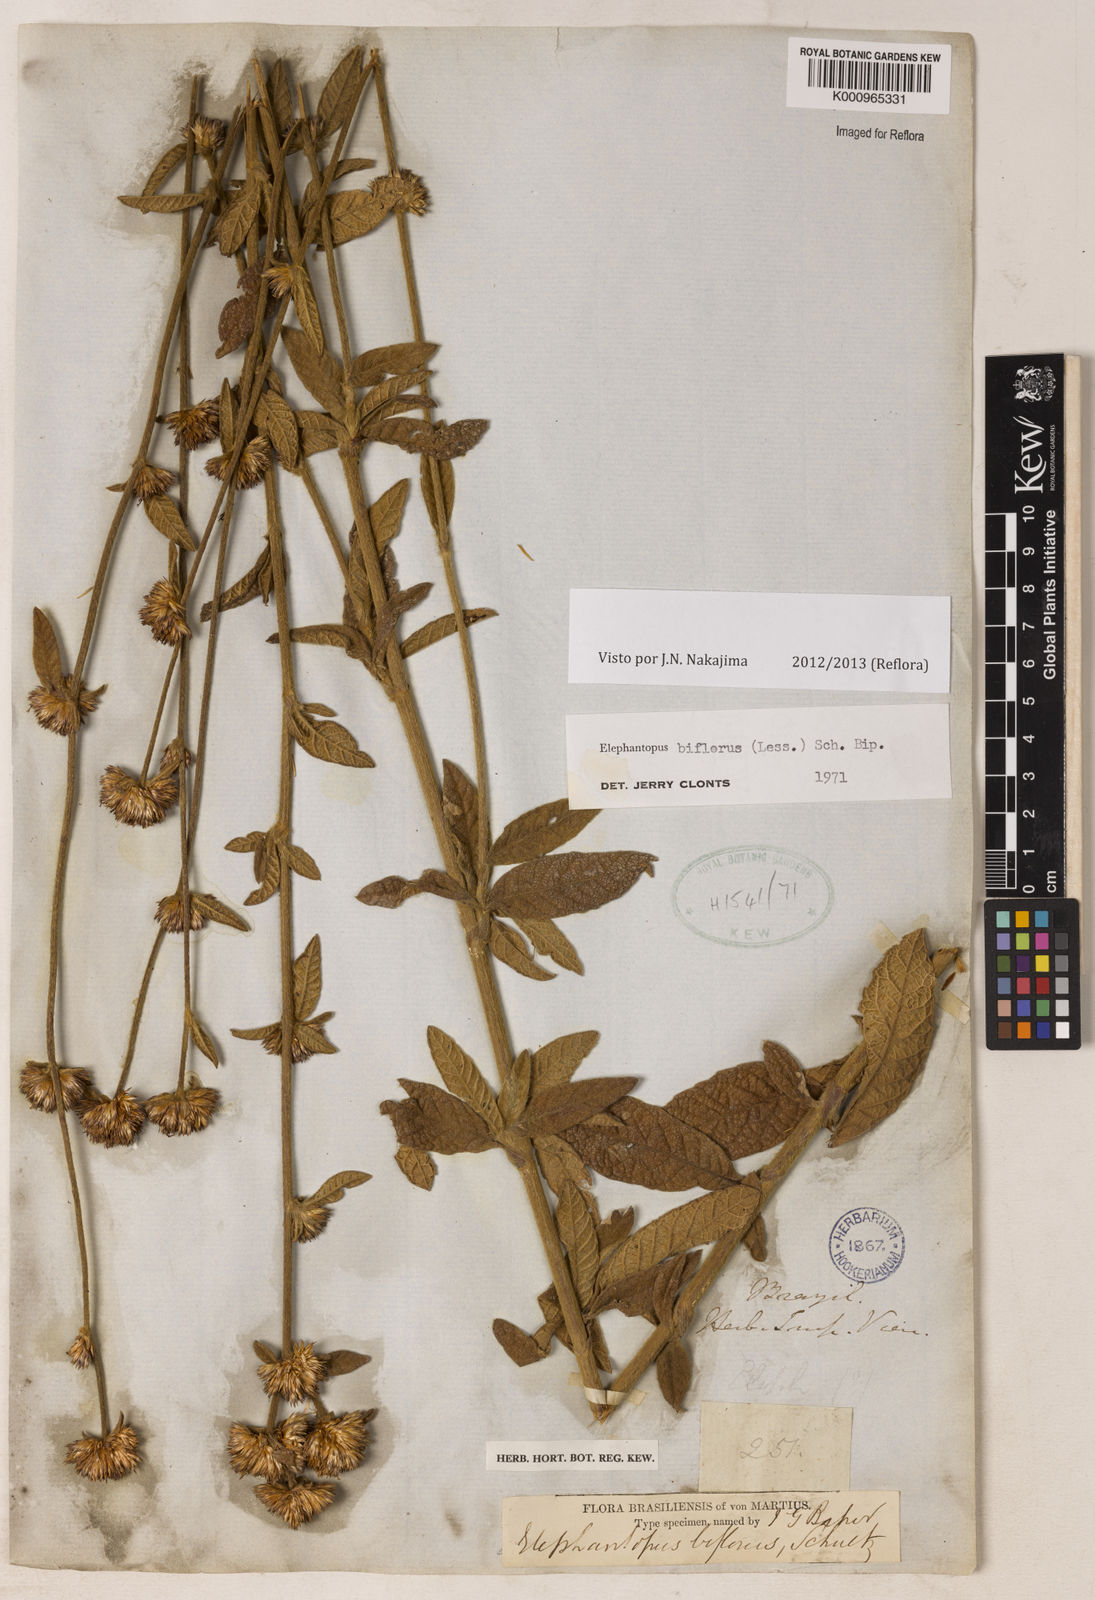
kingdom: Plantae
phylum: Tracheophyta
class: Magnoliopsida
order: Asterales
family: Asteraceae
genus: Elephantopus
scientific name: Elephantopus biflorus
